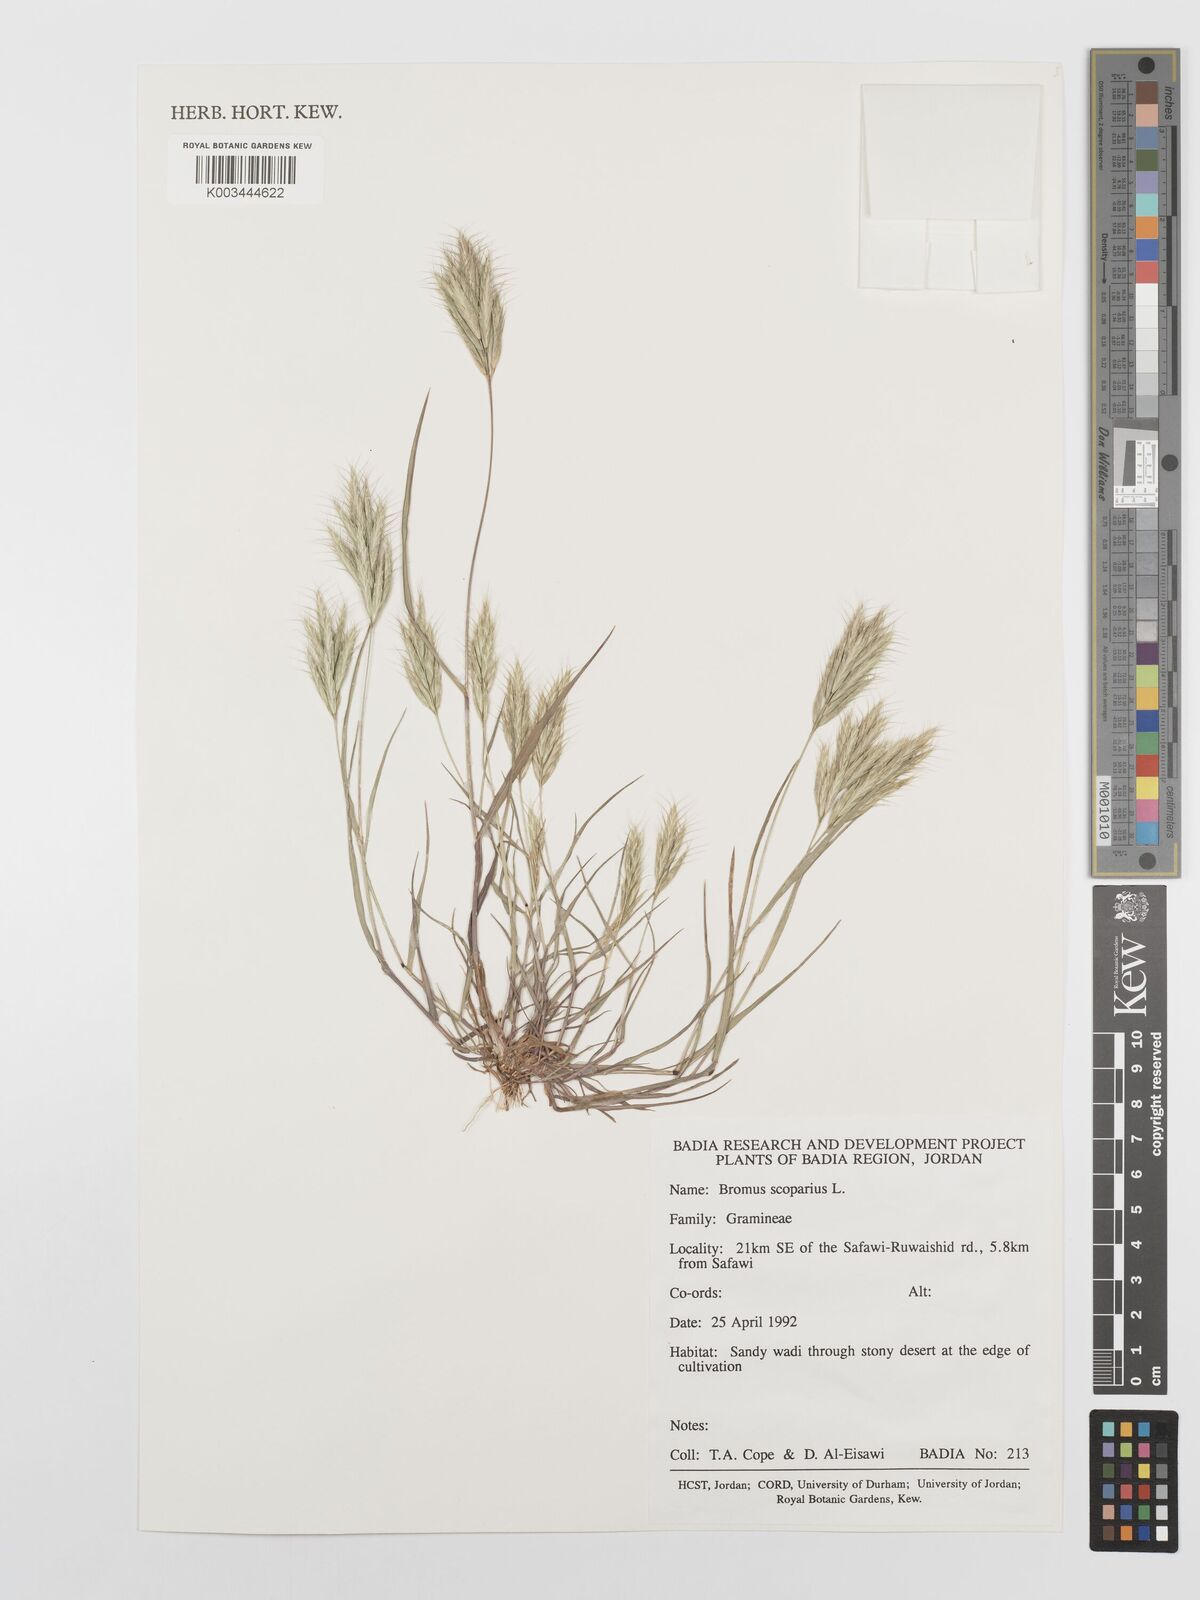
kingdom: Plantae
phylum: Tracheophyta
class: Liliopsida
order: Poales
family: Poaceae
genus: Bromus
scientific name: Bromus scoparius
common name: Broom brome
